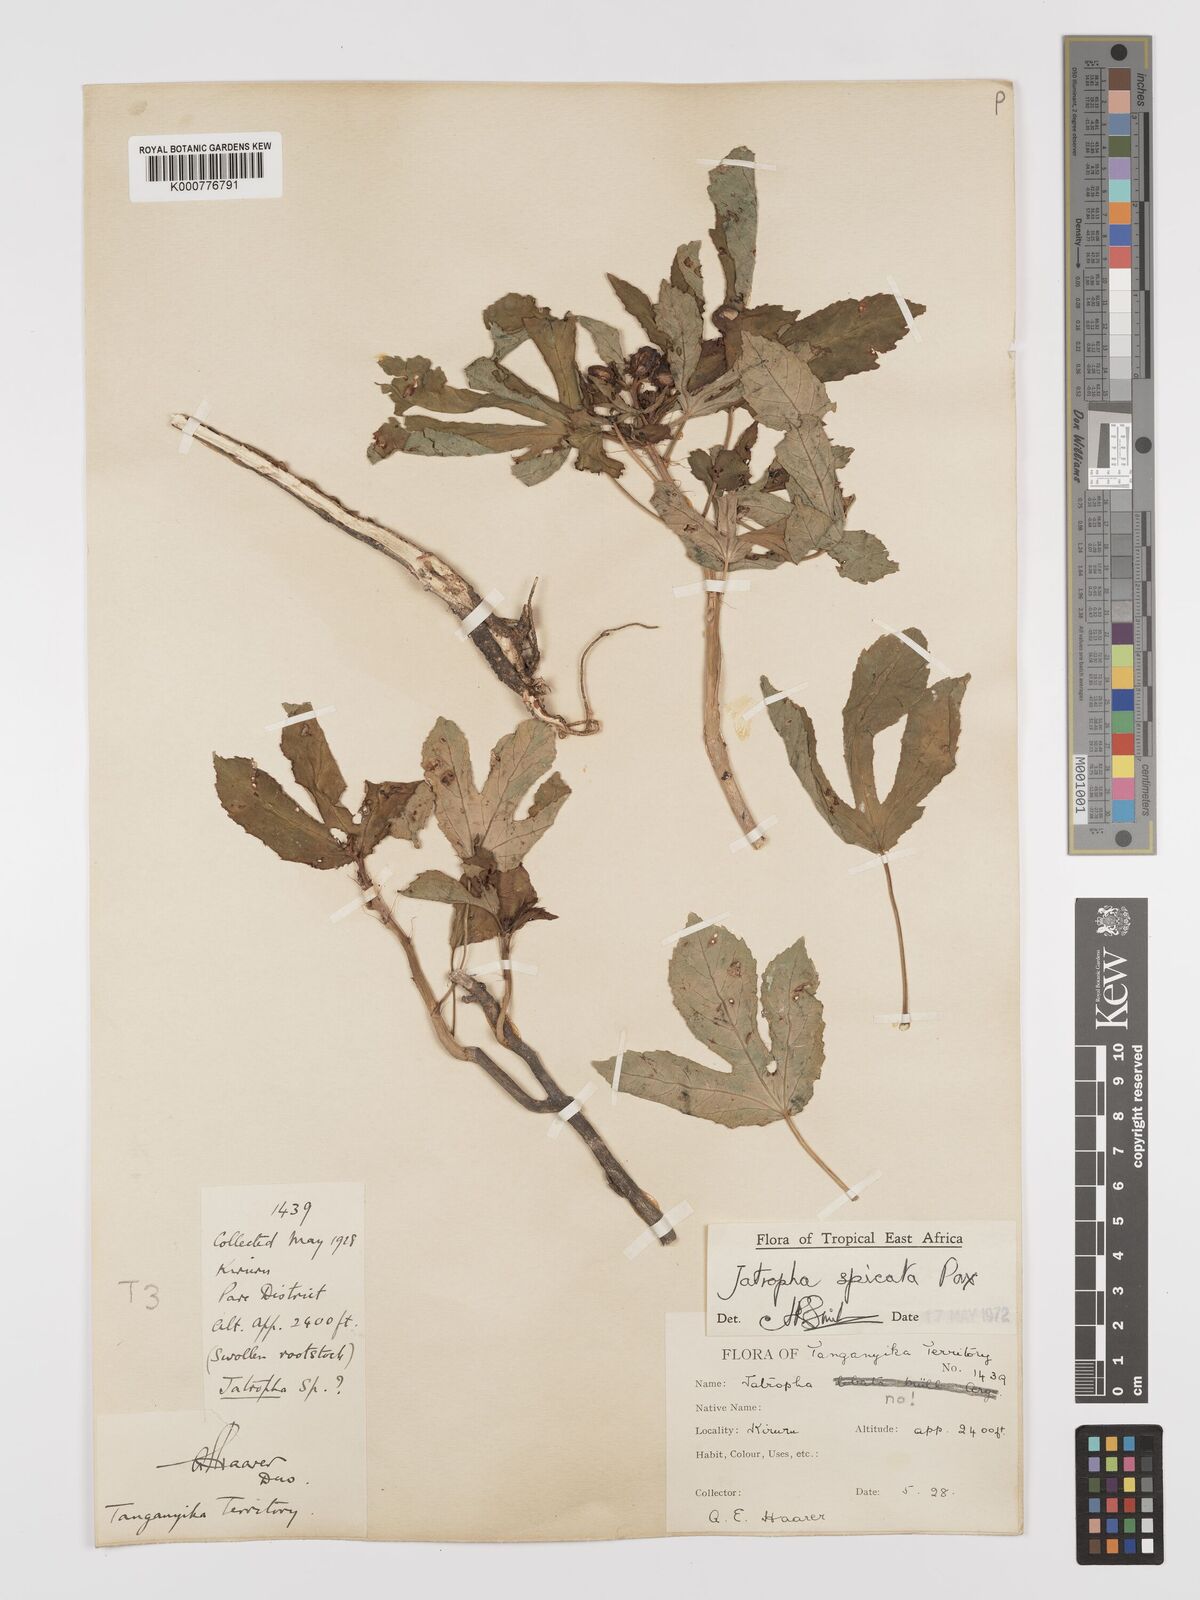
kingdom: Plantae
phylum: Tracheophyta
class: Magnoliopsida
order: Malpighiales
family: Euphorbiaceae
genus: Jatropha
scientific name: Jatropha spicata
